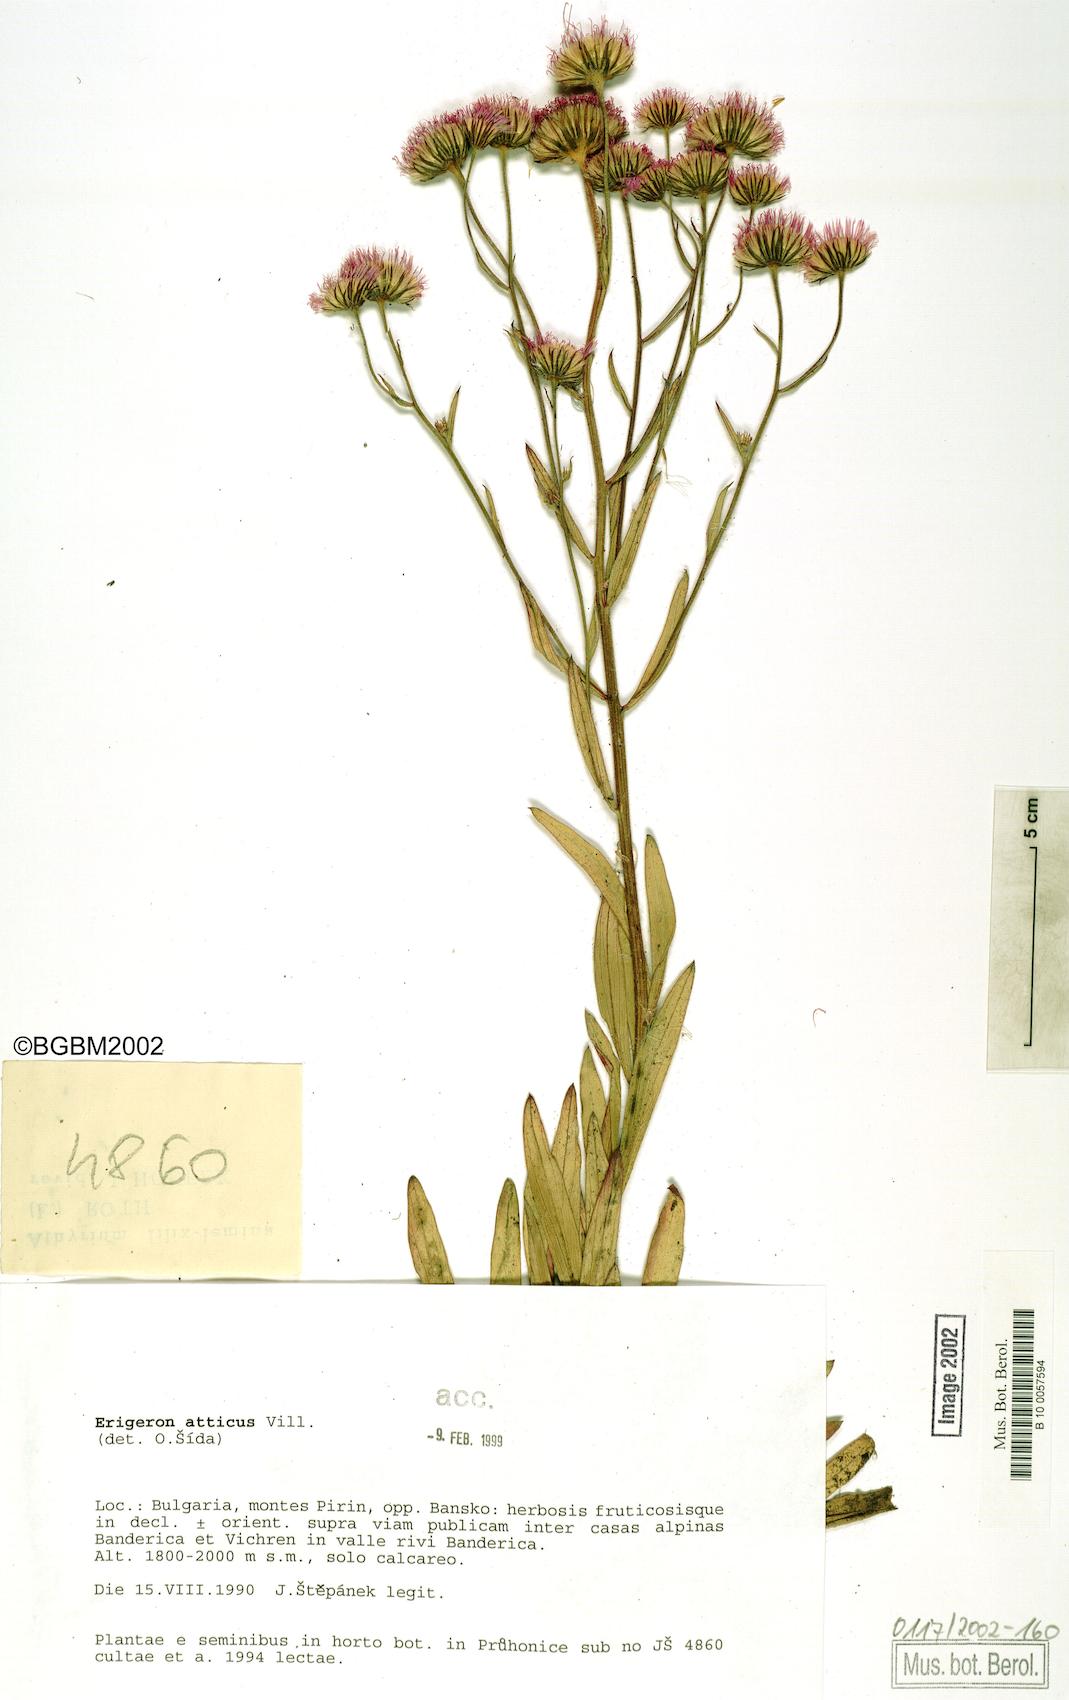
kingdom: Plantae
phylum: Tracheophyta
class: Magnoliopsida
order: Asterales
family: Asteraceae
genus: Erigeron
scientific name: Erigeron atticus
